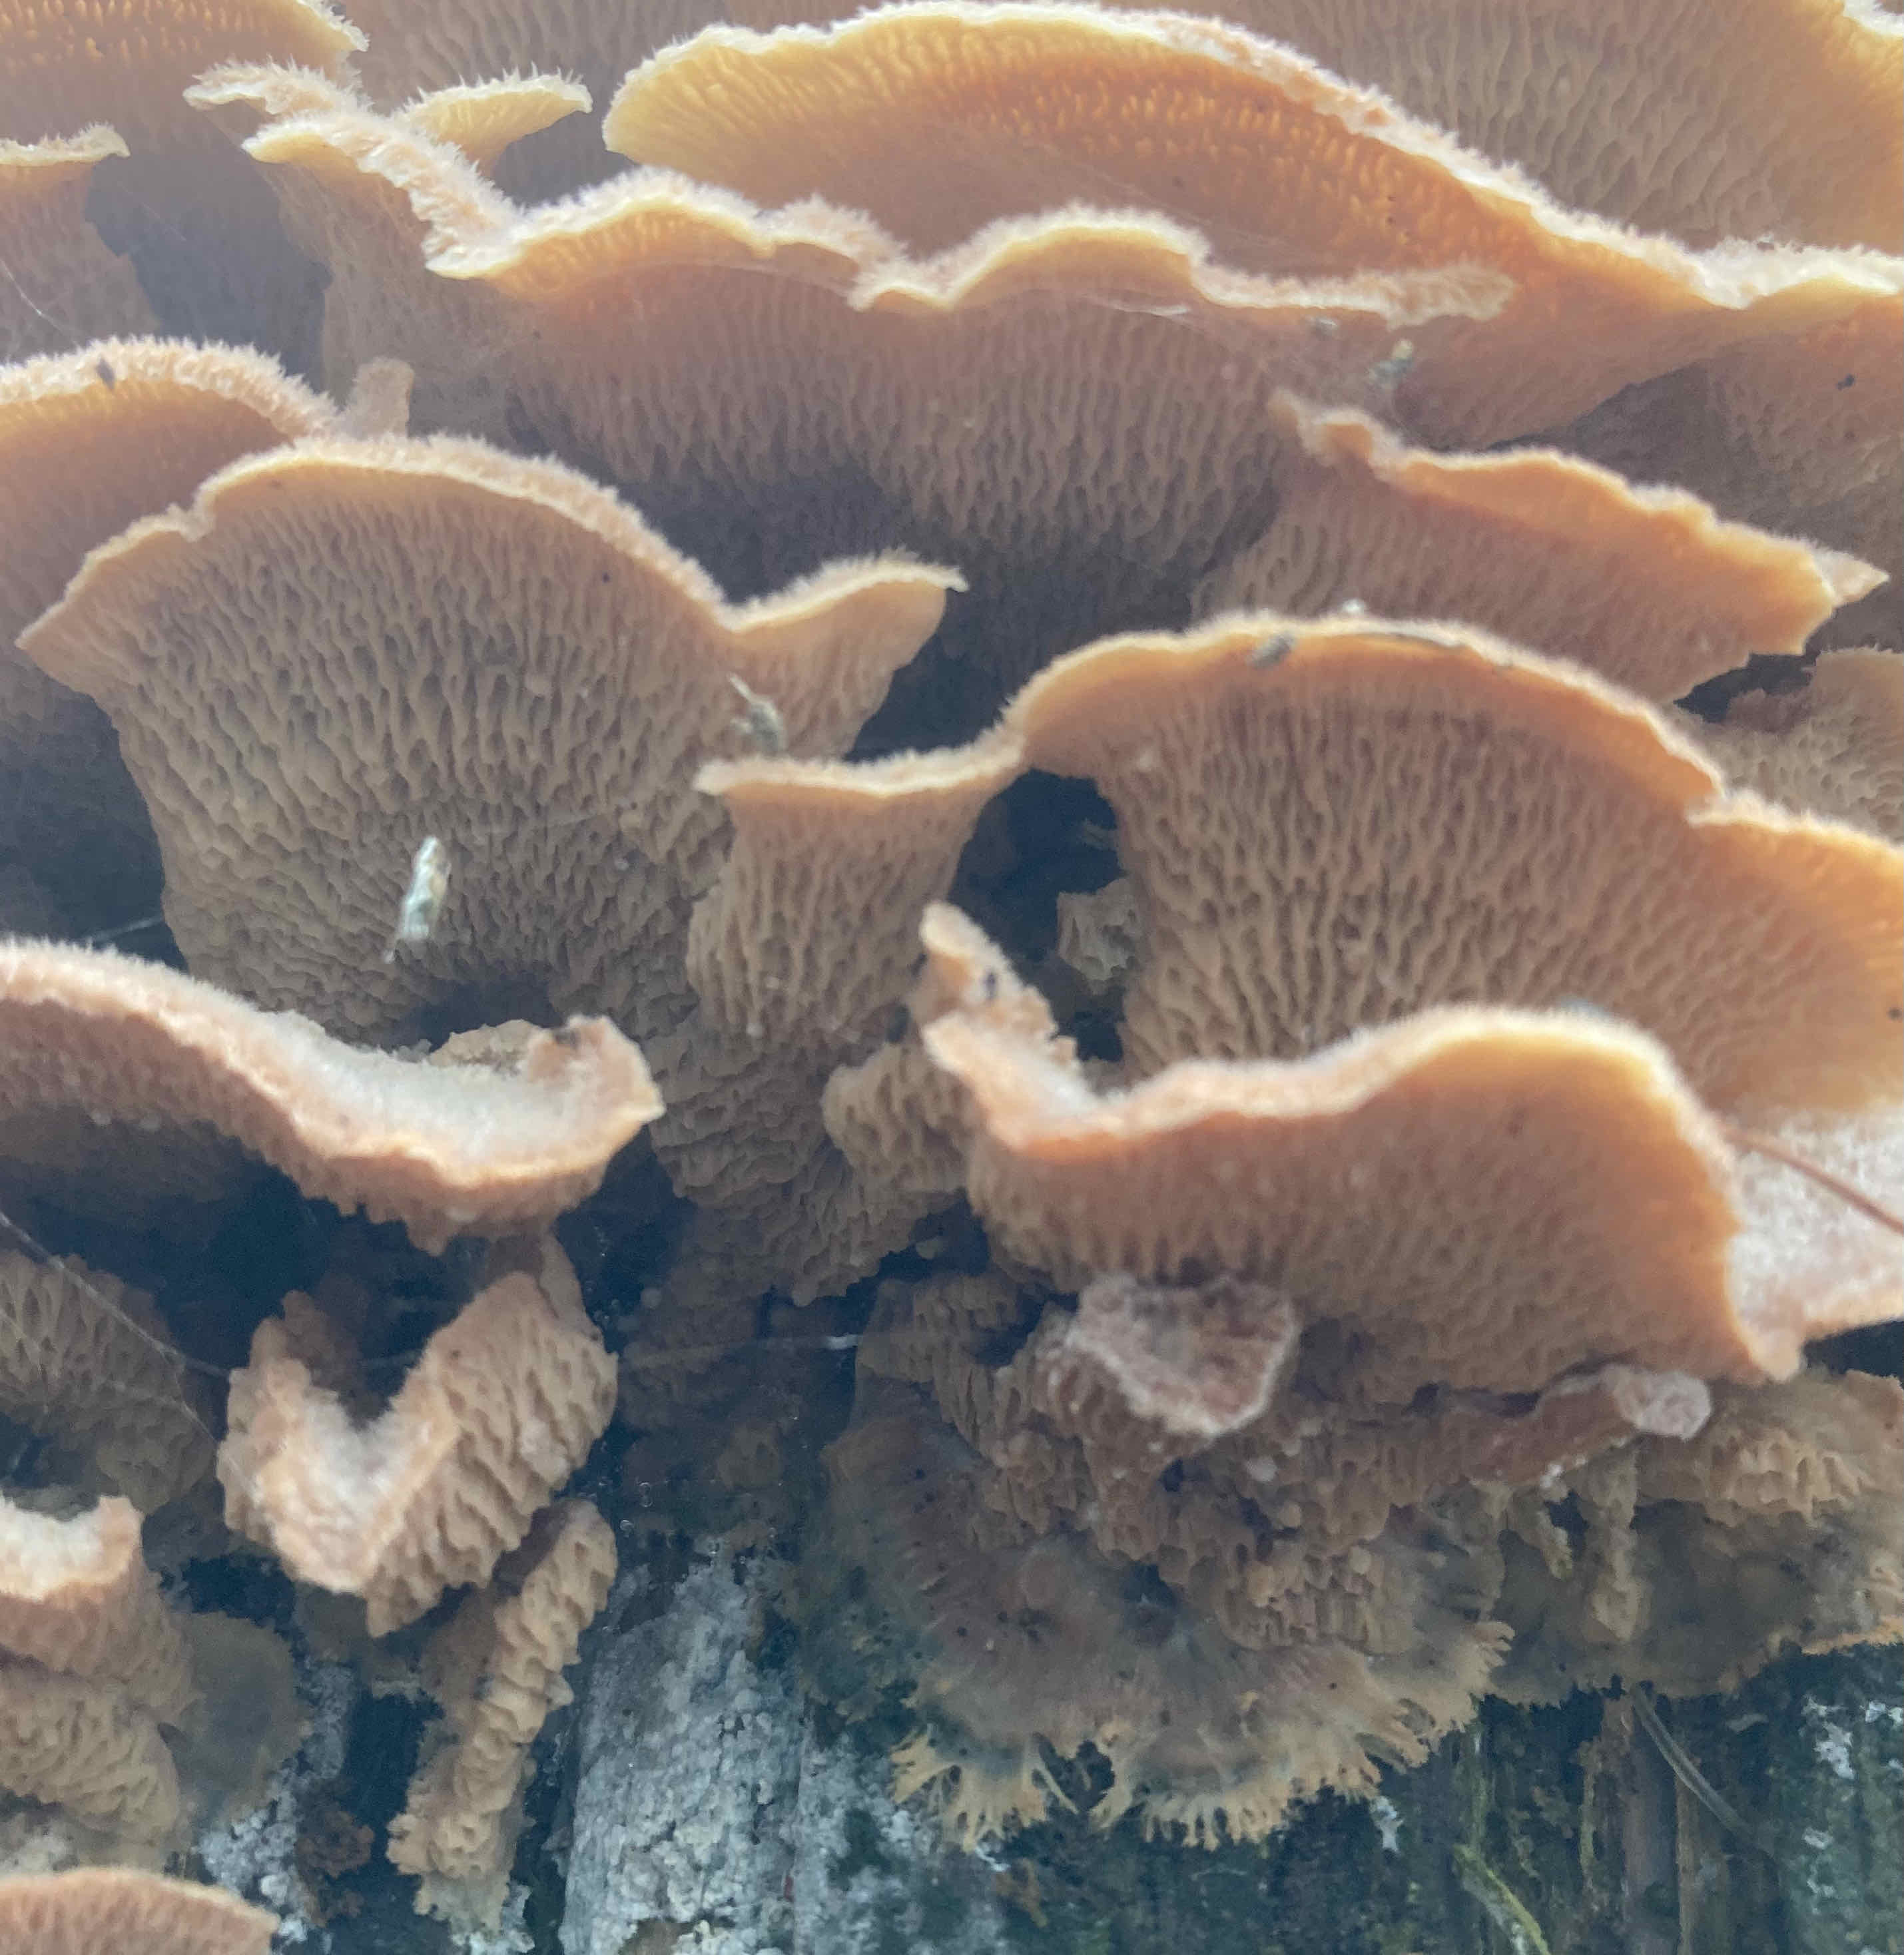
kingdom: Fungi
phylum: Basidiomycota
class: Agaricomycetes
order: Polyporales
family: Meruliaceae
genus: Phlebia
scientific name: Phlebia tremellosa
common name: bævrende åresvamp
